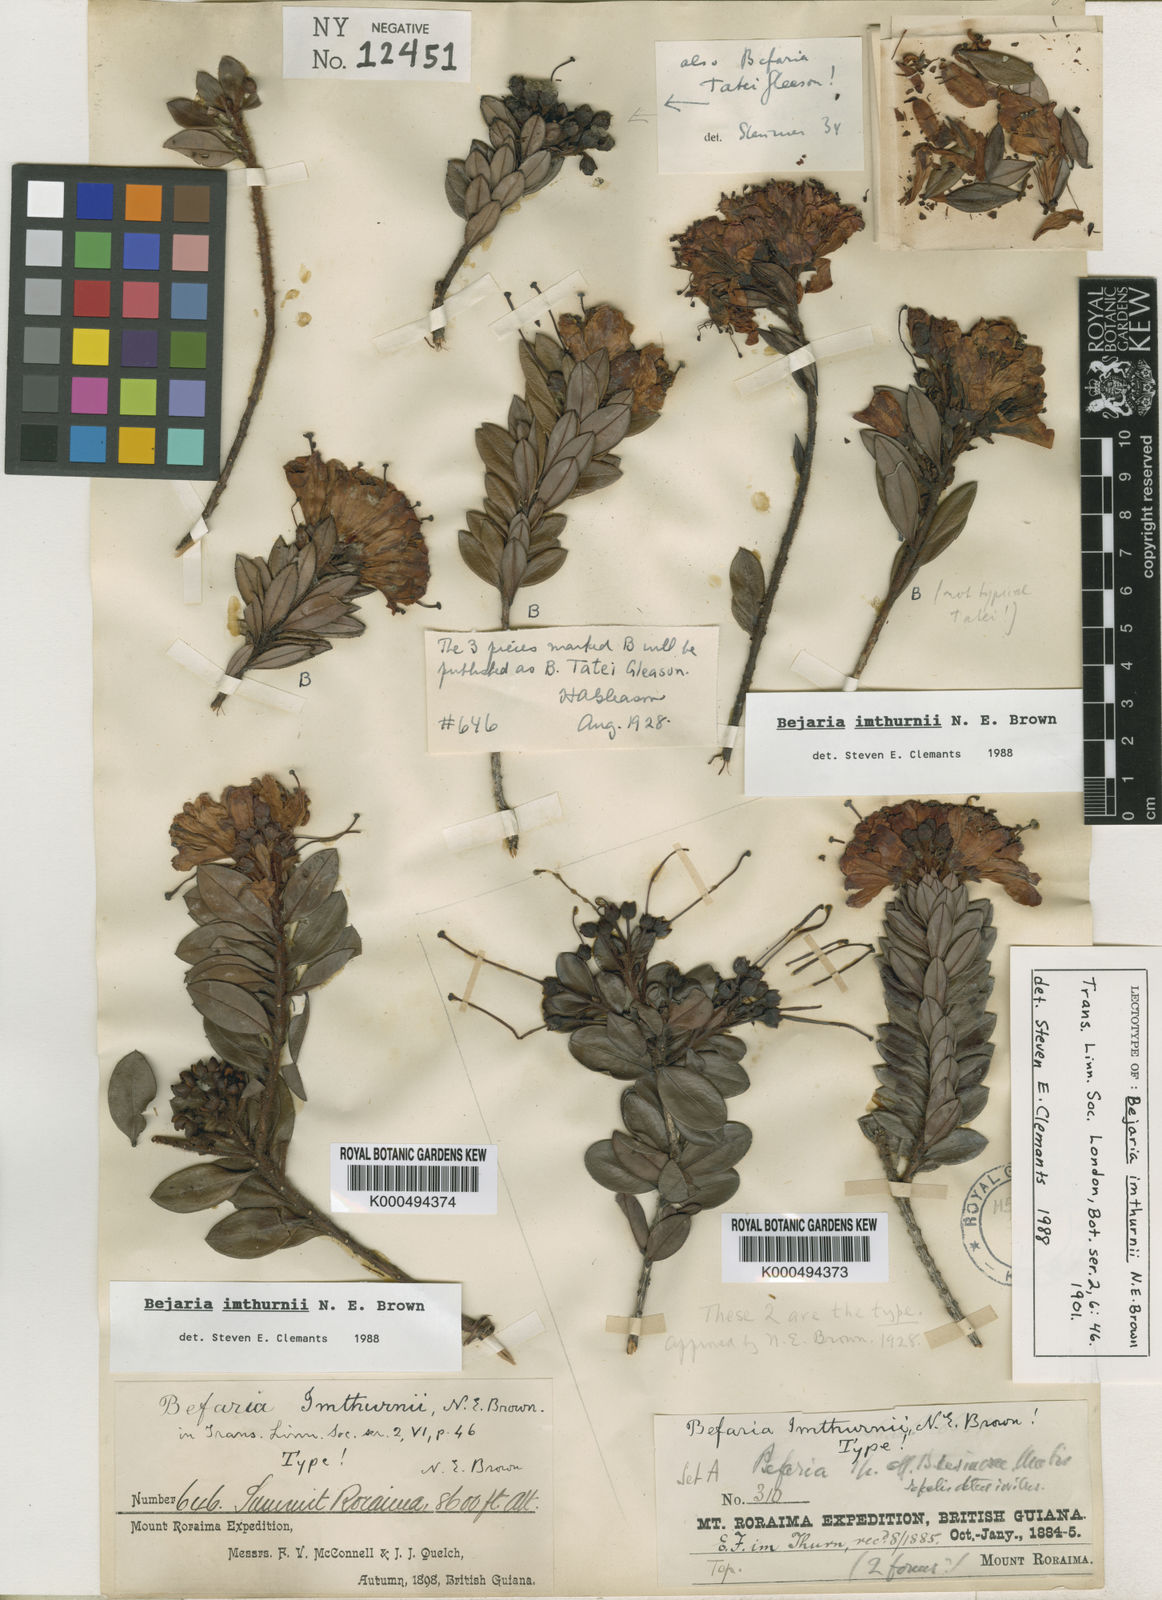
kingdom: Plantae
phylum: Tracheophyta
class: Magnoliopsida
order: Ericales
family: Ericaceae
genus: Bejaria
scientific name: Bejaria imthurnii
